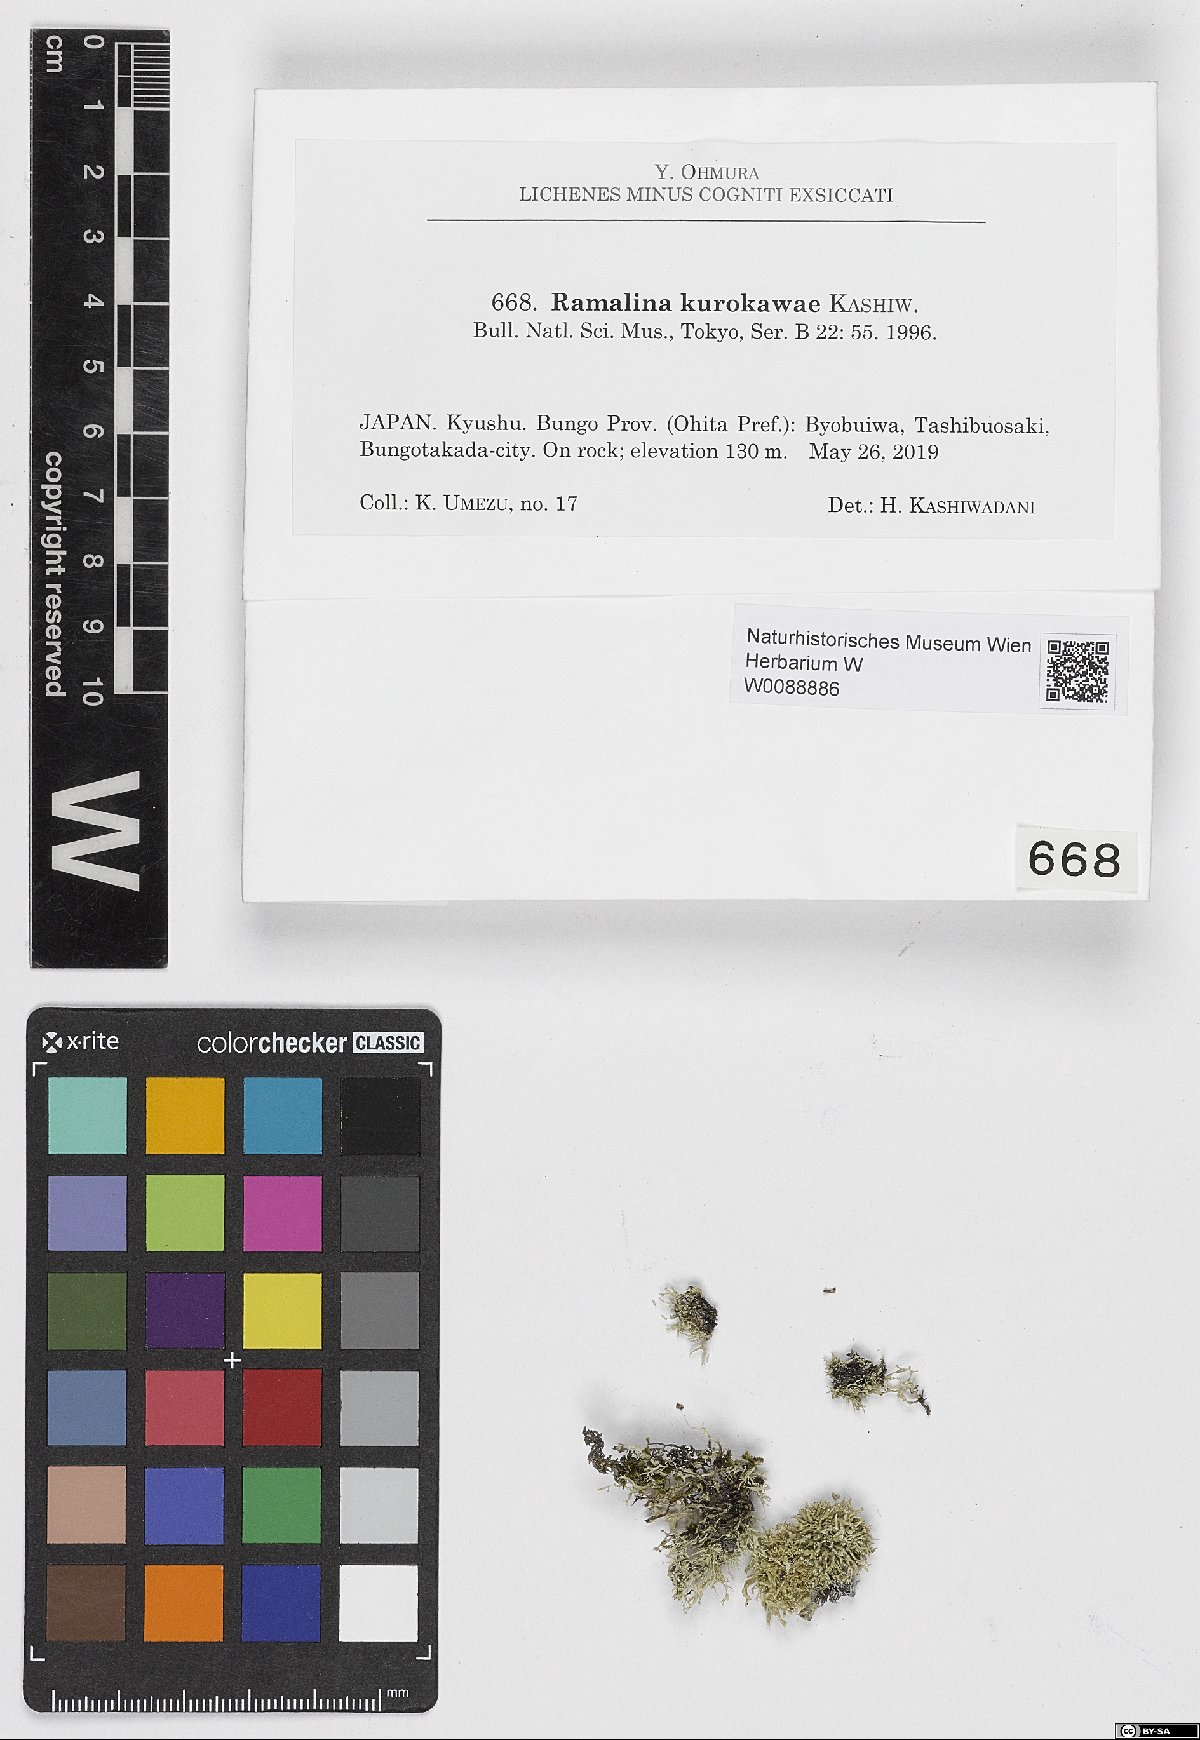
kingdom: Fungi
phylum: Ascomycota
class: Lecanoromycetes
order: Lecanorales
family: Ramalinaceae
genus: Ramalina
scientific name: Ramalina kurokawae
